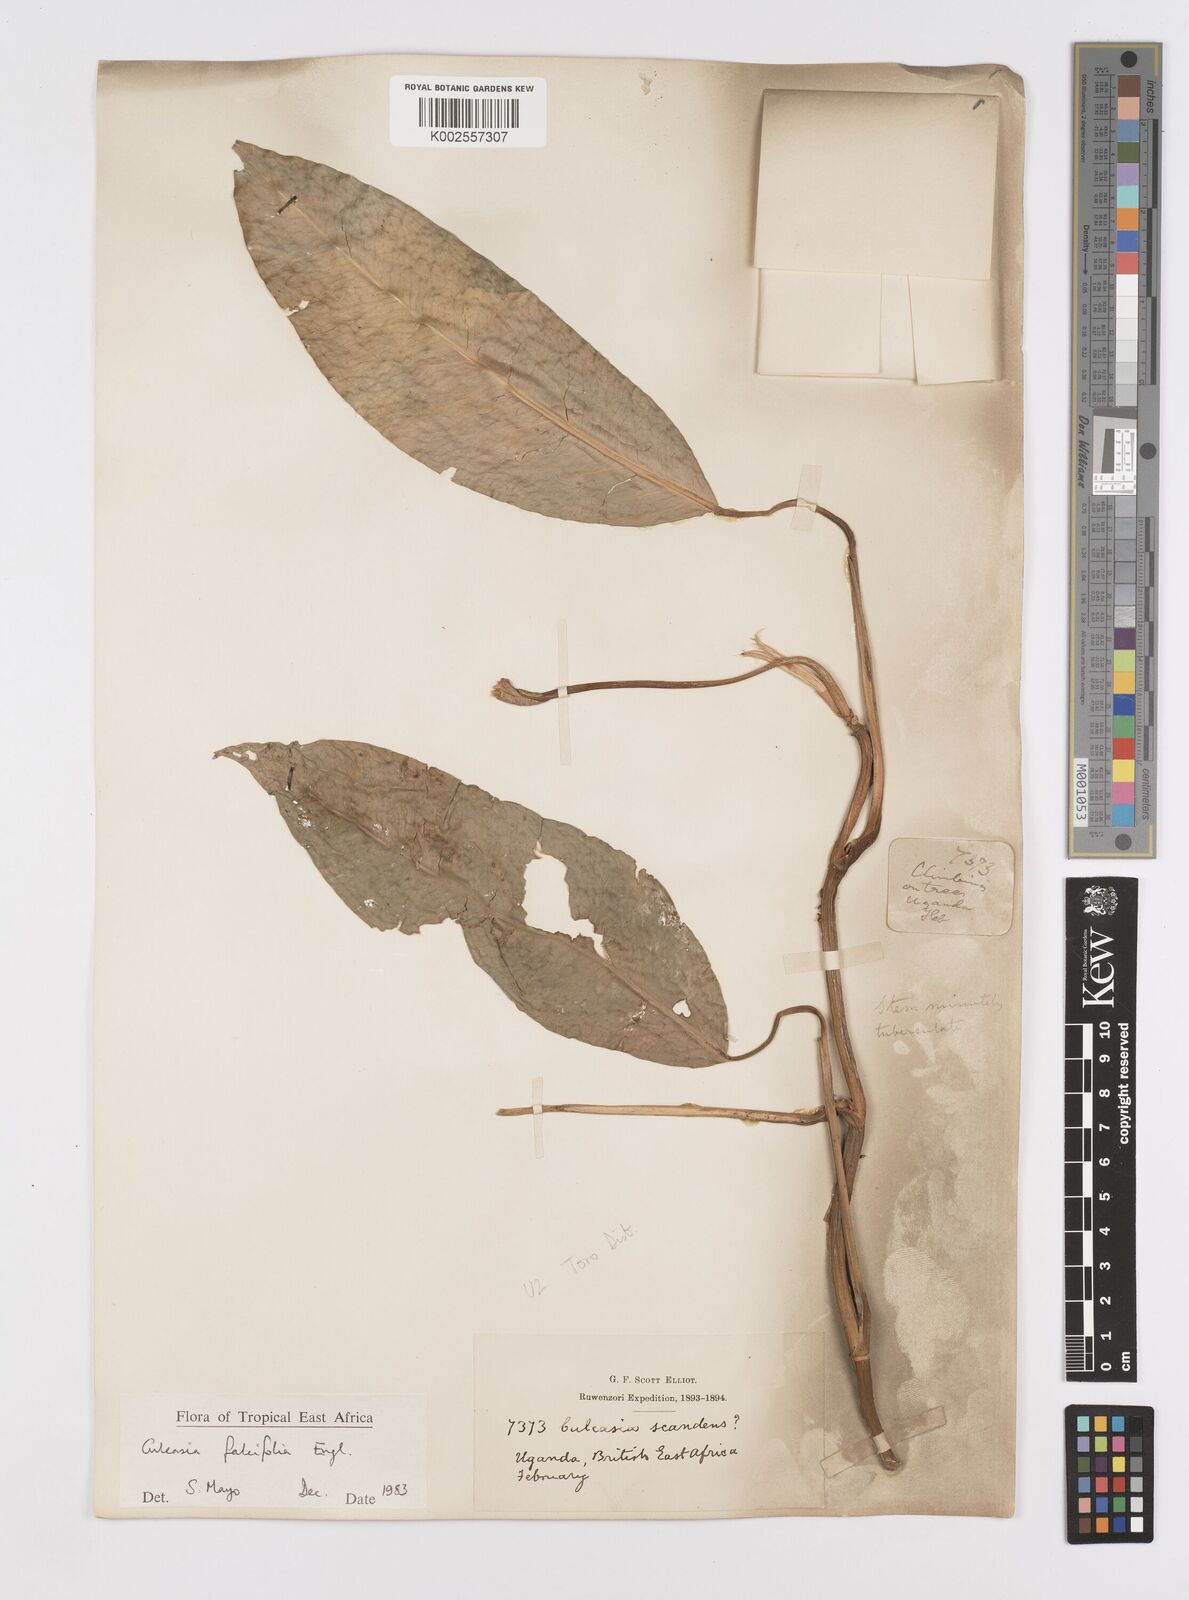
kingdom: Plantae
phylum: Tracheophyta
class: Liliopsida
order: Alismatales
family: Araceae
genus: Culcasia
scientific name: Culcasia falcifolia
